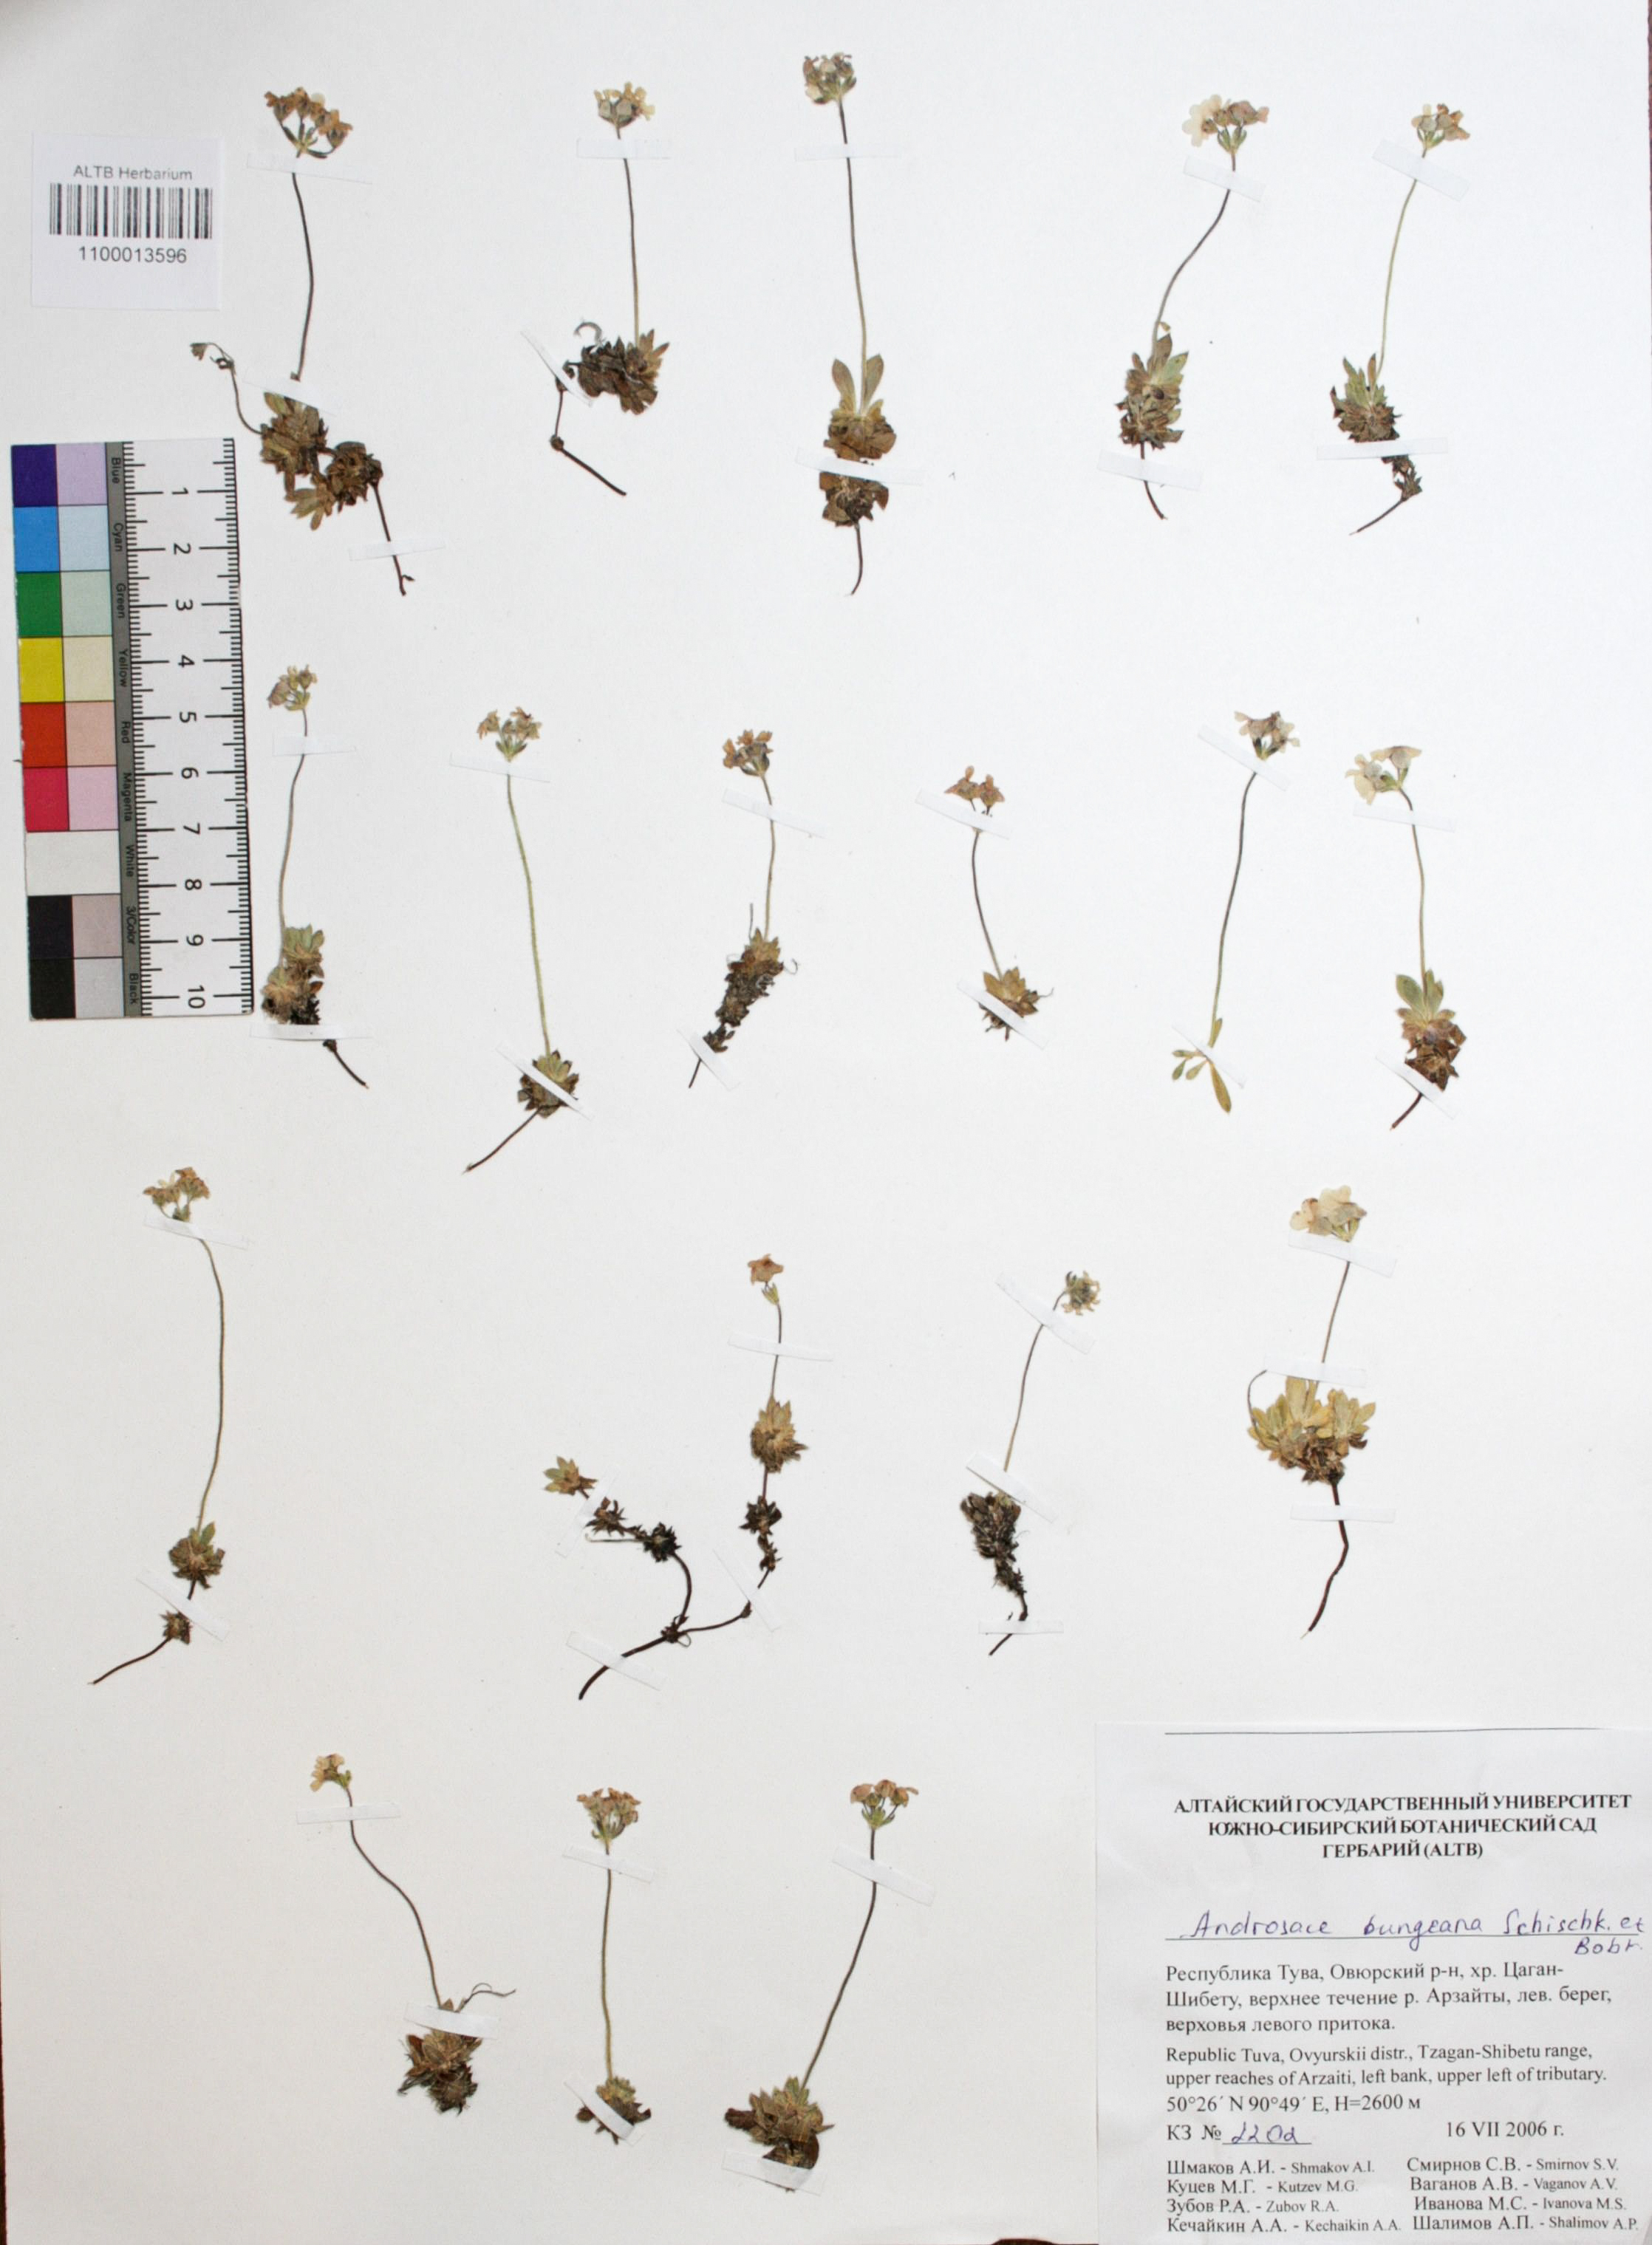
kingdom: Plantae
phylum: Tracheophyta
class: Magnoliopsida
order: Ericales
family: Primulaceae
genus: Androsace
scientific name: Androsace bungeana
